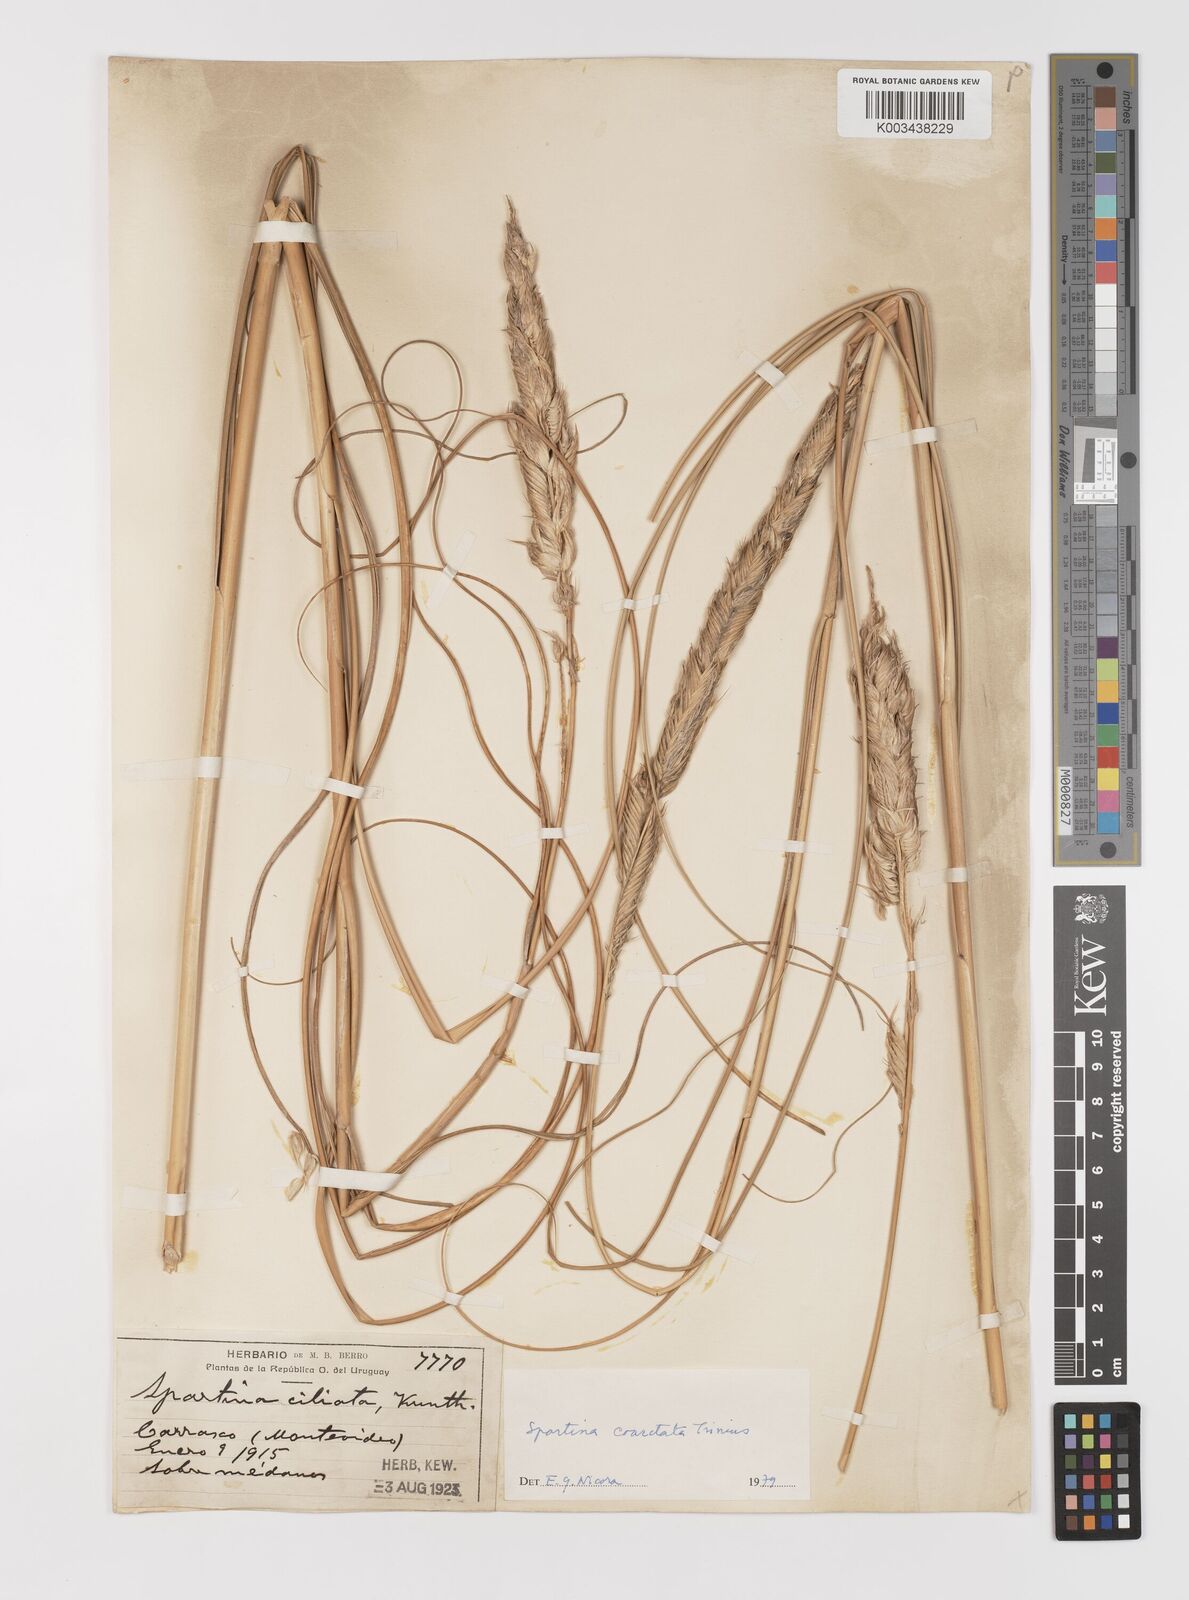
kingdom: Plantae
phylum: Tracheophyta
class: Liliopsida
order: Poales
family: Poaceae
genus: Sporobolus
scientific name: Sporobolus coarctatus
